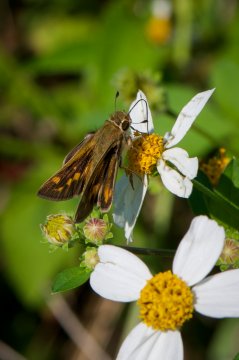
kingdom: Animalia
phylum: Arthropoda
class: Insecta
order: Lepidoptera
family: Hesperiidae
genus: Hylephila
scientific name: Hylephila phyleus
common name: Fiery Skipper
